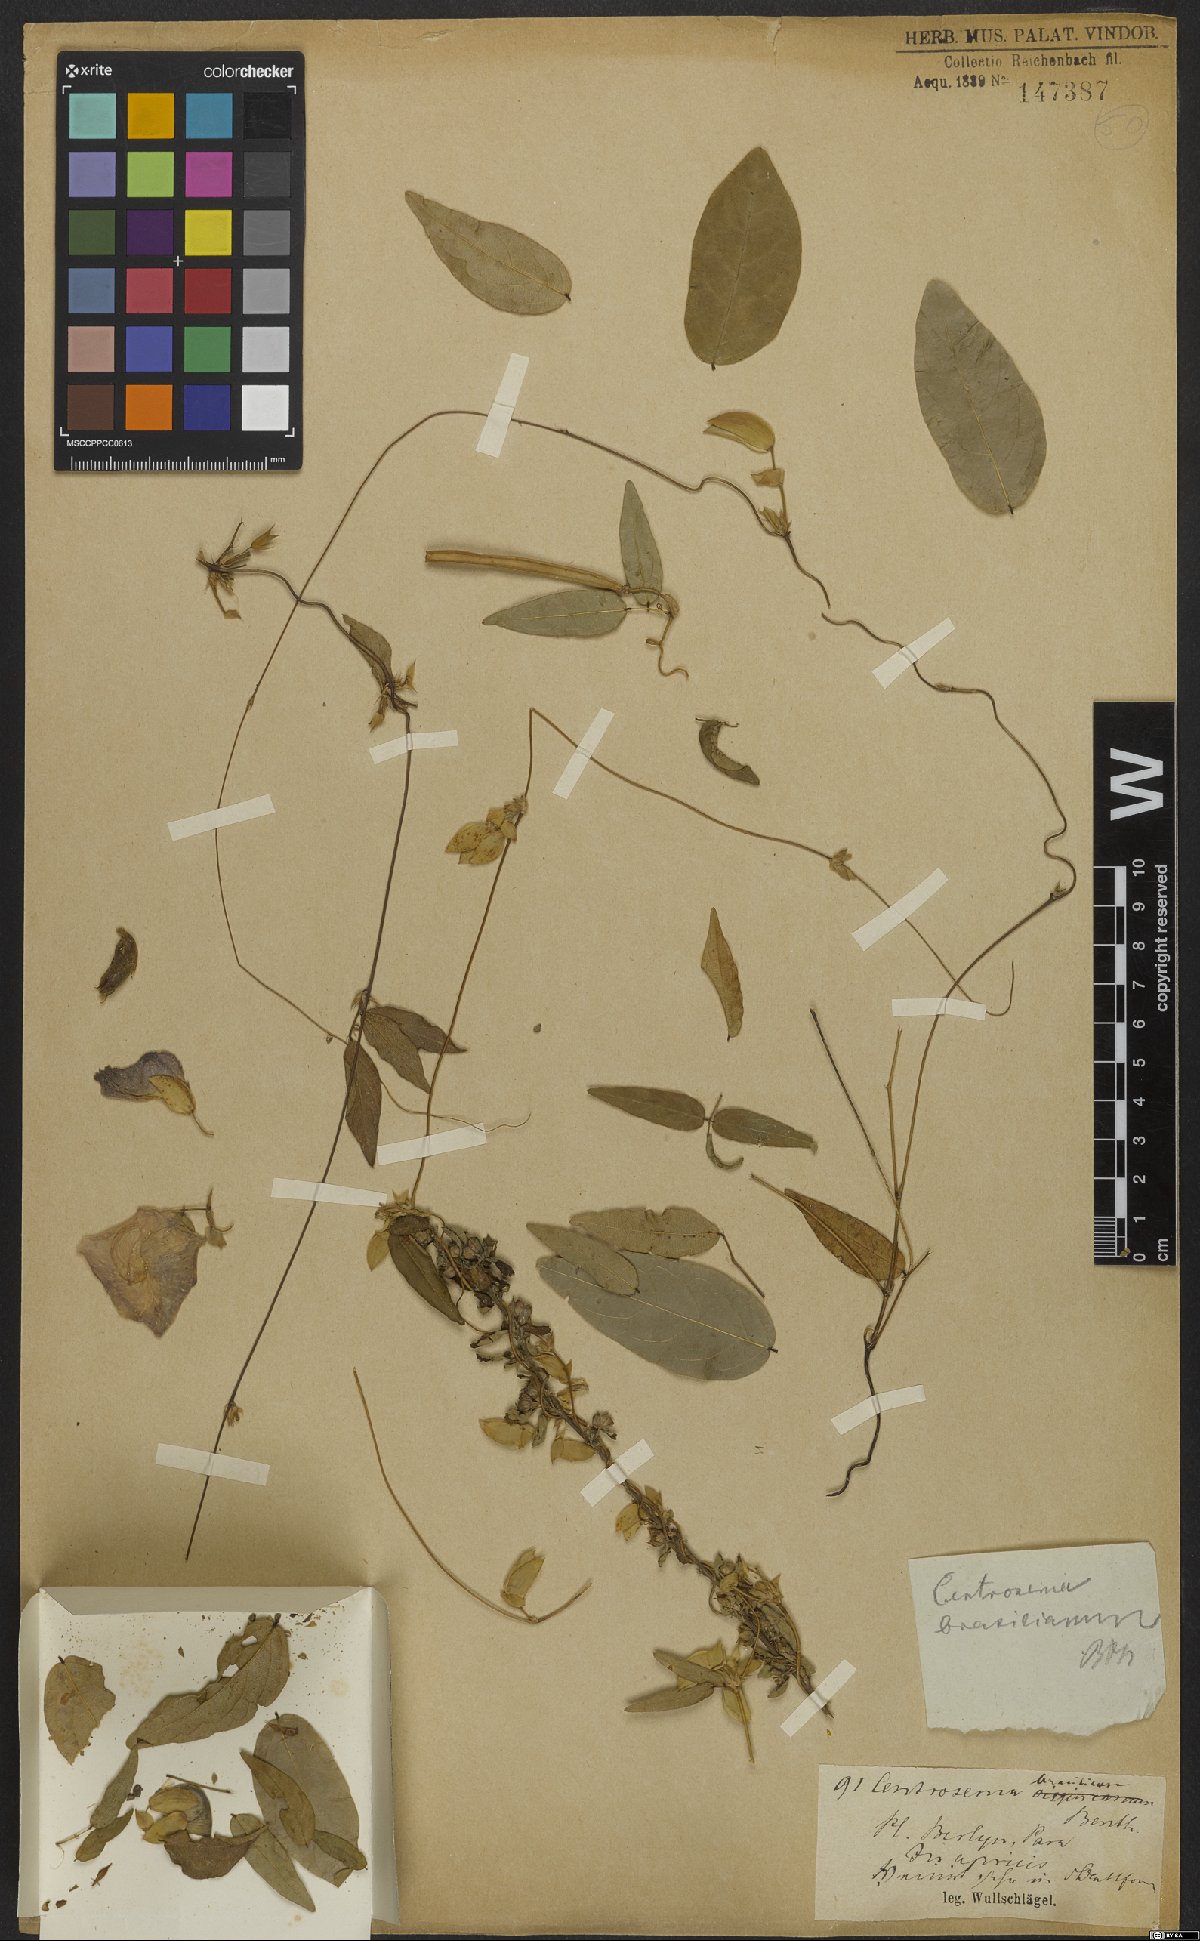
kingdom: Plantae
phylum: Tracheophyta
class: Magnoliopsida
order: Fabales
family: Fabaceae
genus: Centrosema
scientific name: Centrosema brasilianum
